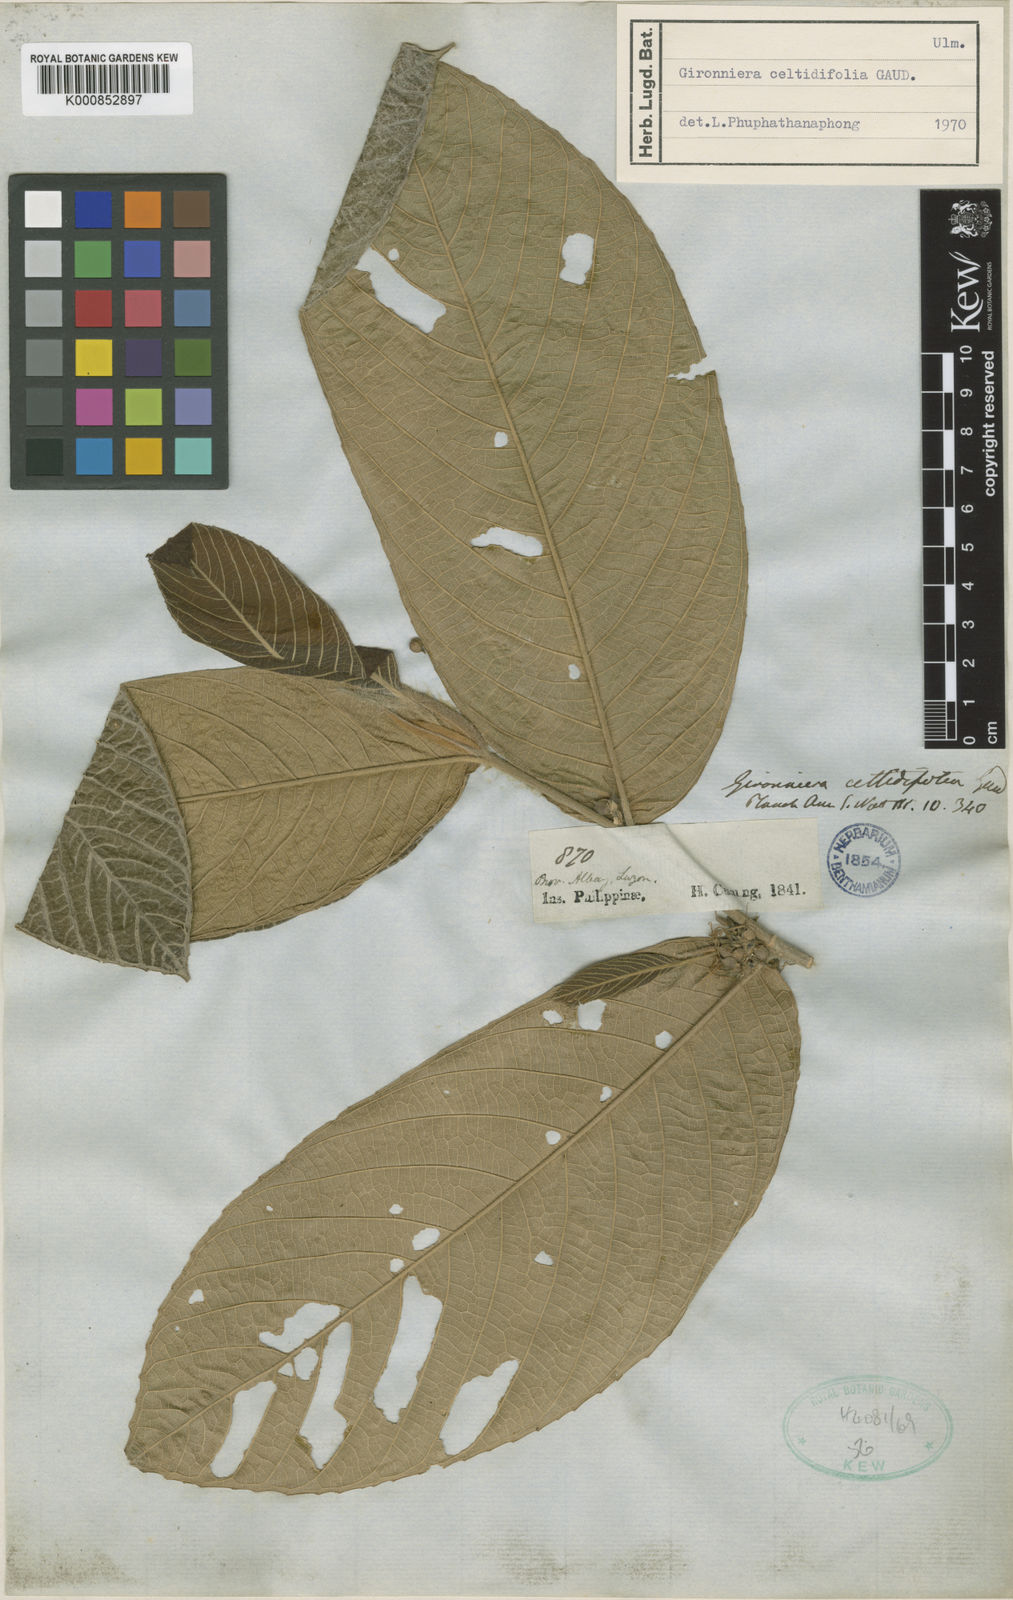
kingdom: Plantae
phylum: Tracheophyta
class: Magnoliopsida
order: Rosales
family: Cannabaceae
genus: Gironniera
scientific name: Gironniera celtidifolia
